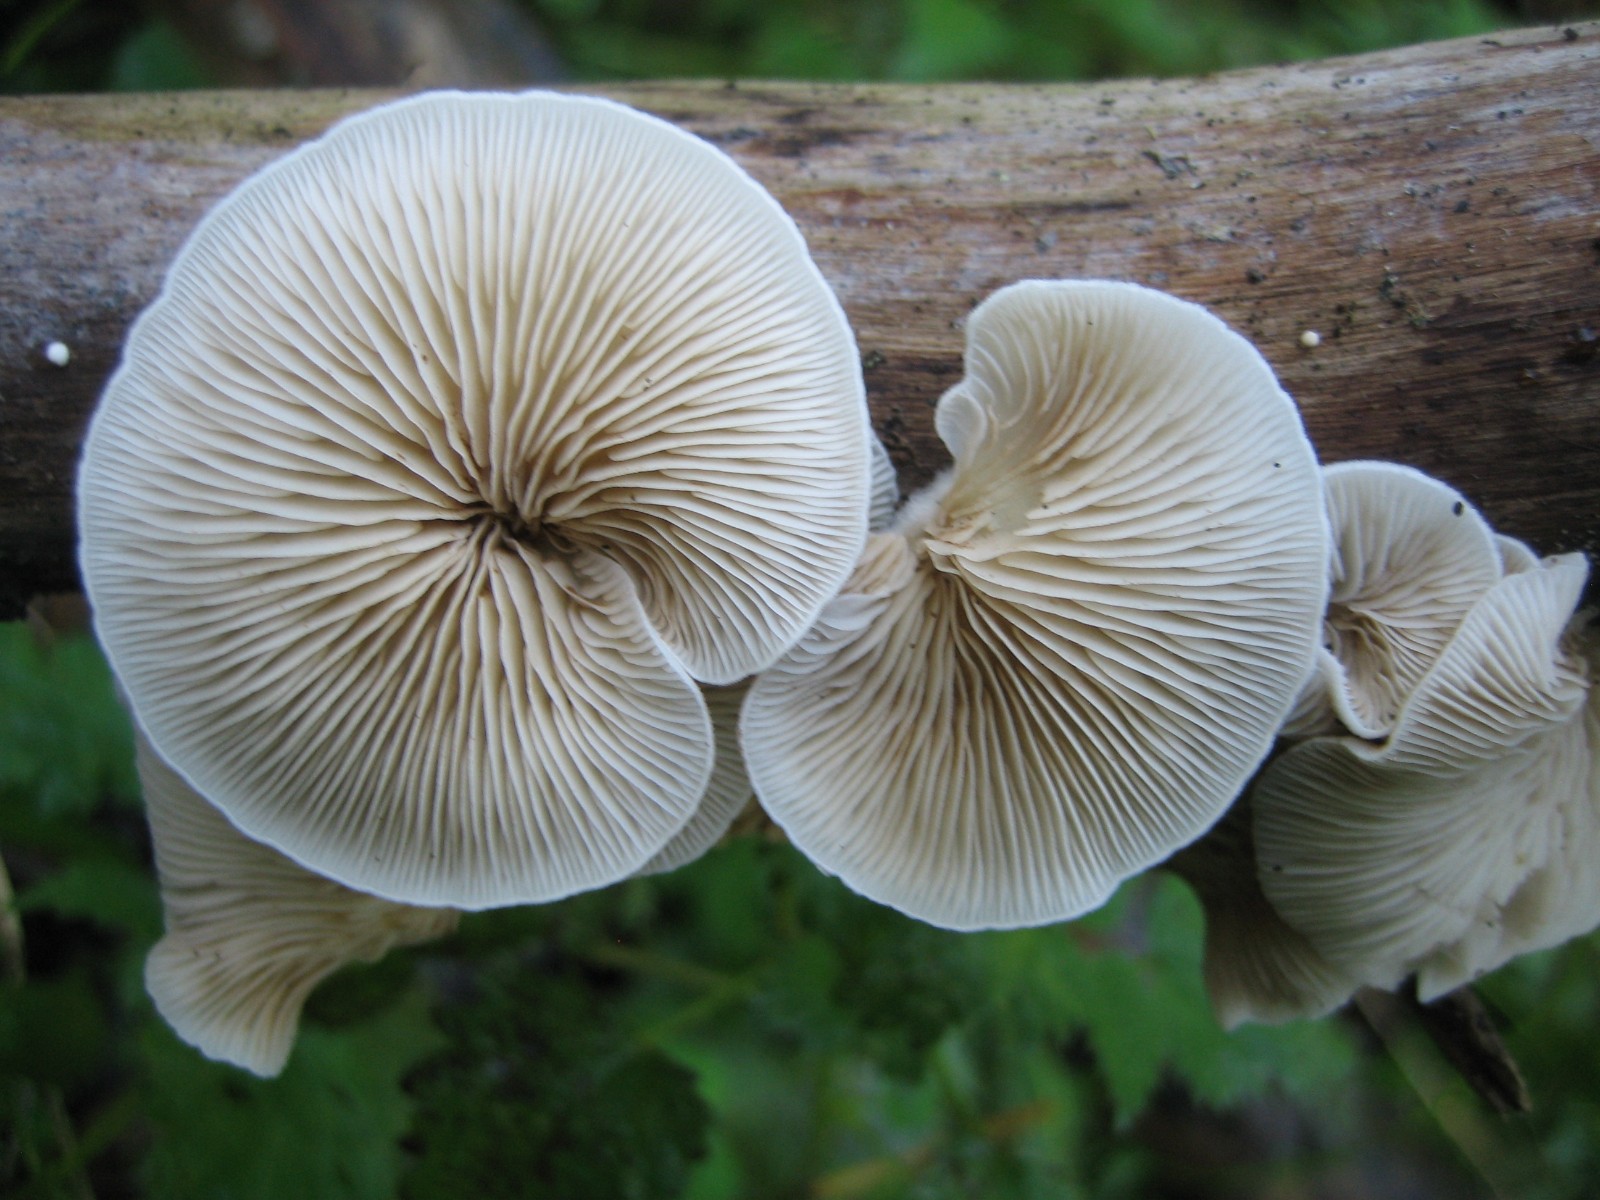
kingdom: Fungi
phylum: Basidiomycota
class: Agaricomycetes
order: Agaricales
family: Crepidotaceae
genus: Crepidotus
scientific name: Crepidotus
